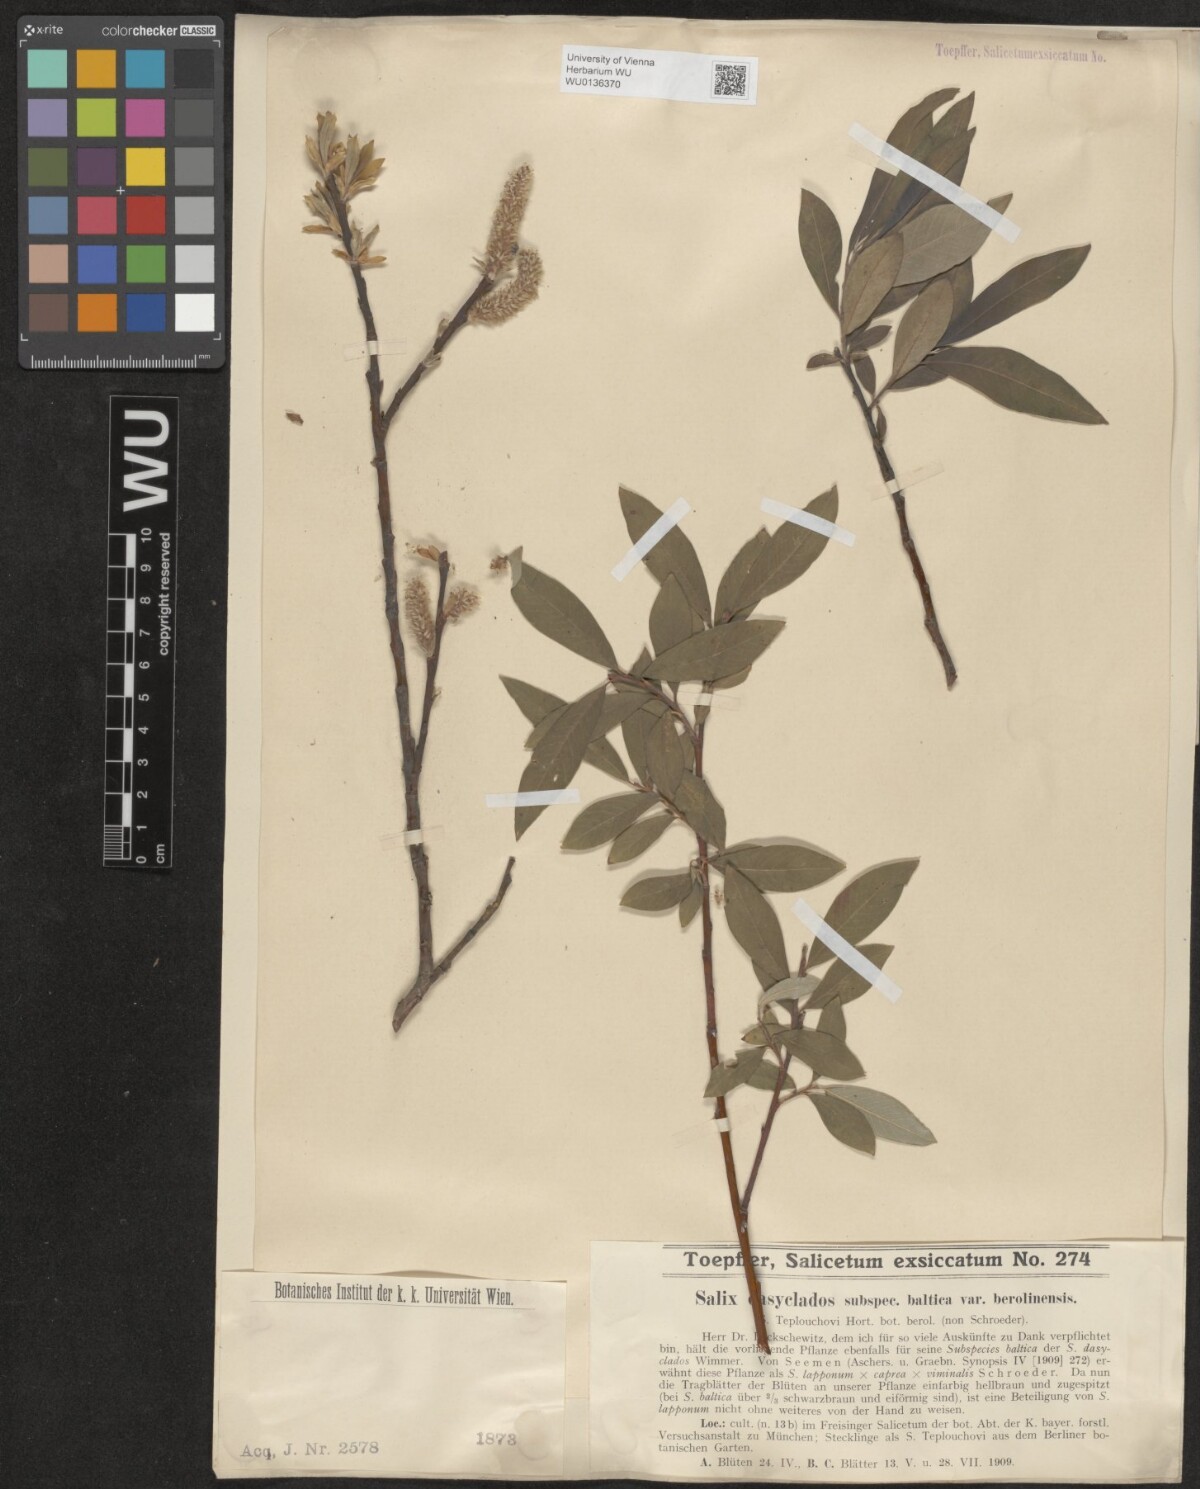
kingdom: Plantae
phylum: Tracheophyta
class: Magnoliopsida
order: Malpighiales
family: Salicaceae
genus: Salix
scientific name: Salix gmelinii
